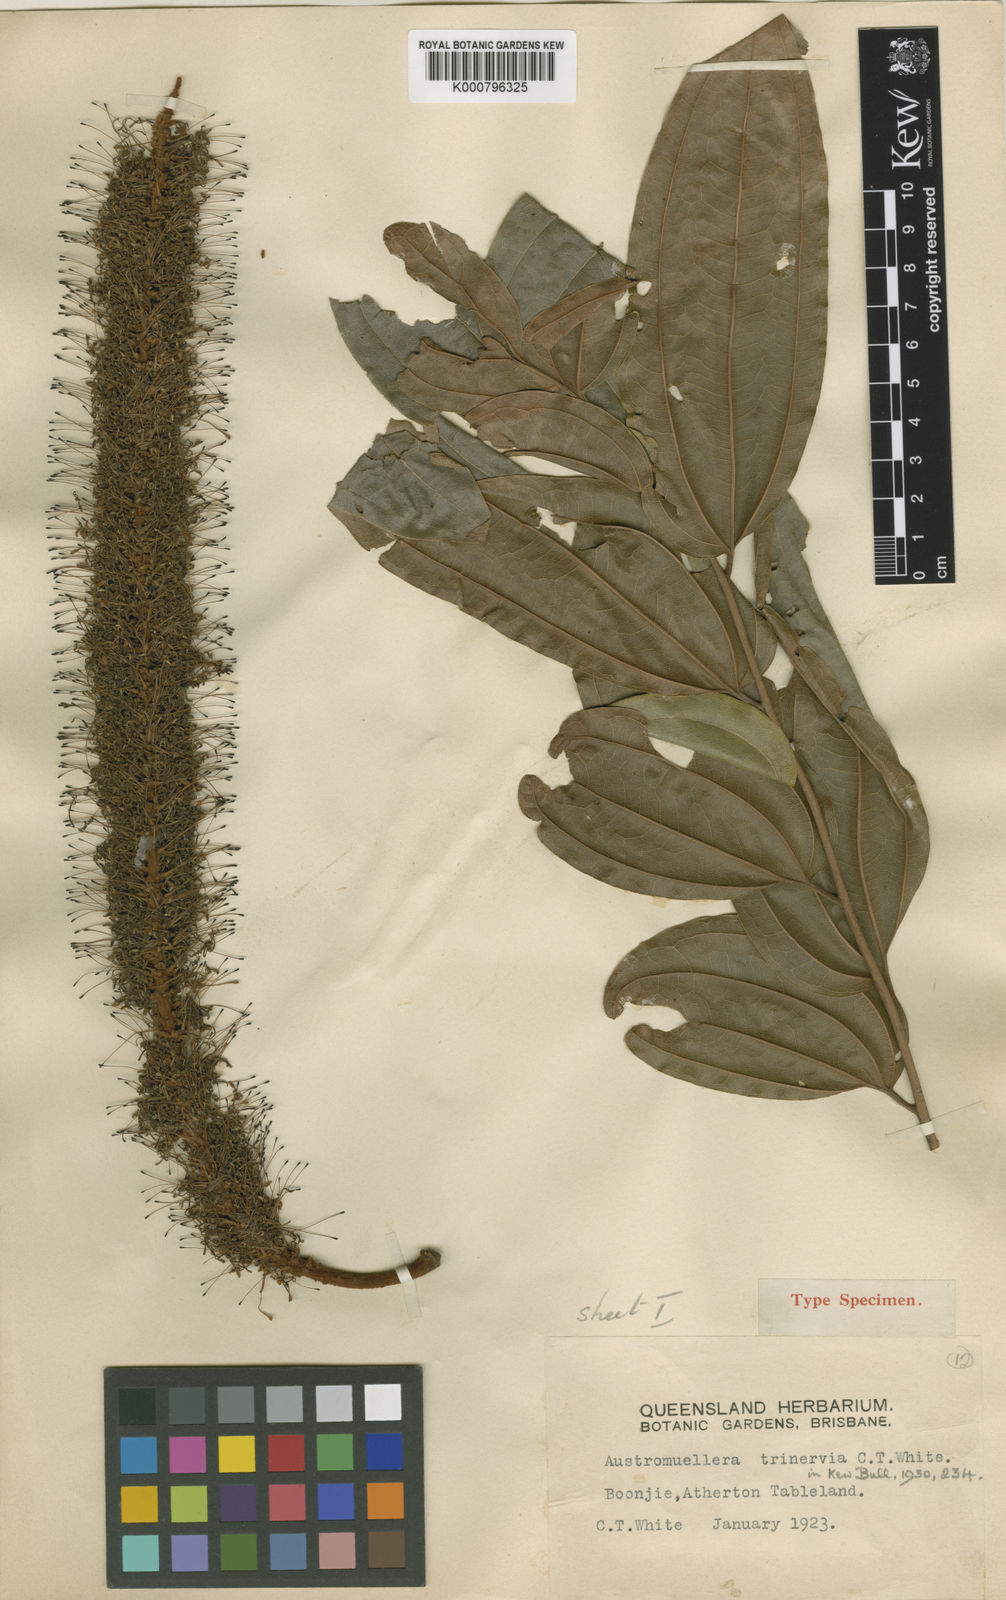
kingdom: Plantae
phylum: Tracheophyta
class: Magnoliopsida
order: Proteales
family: Proteaceae
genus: Austromuellera
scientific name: Austromuellera trinervia
